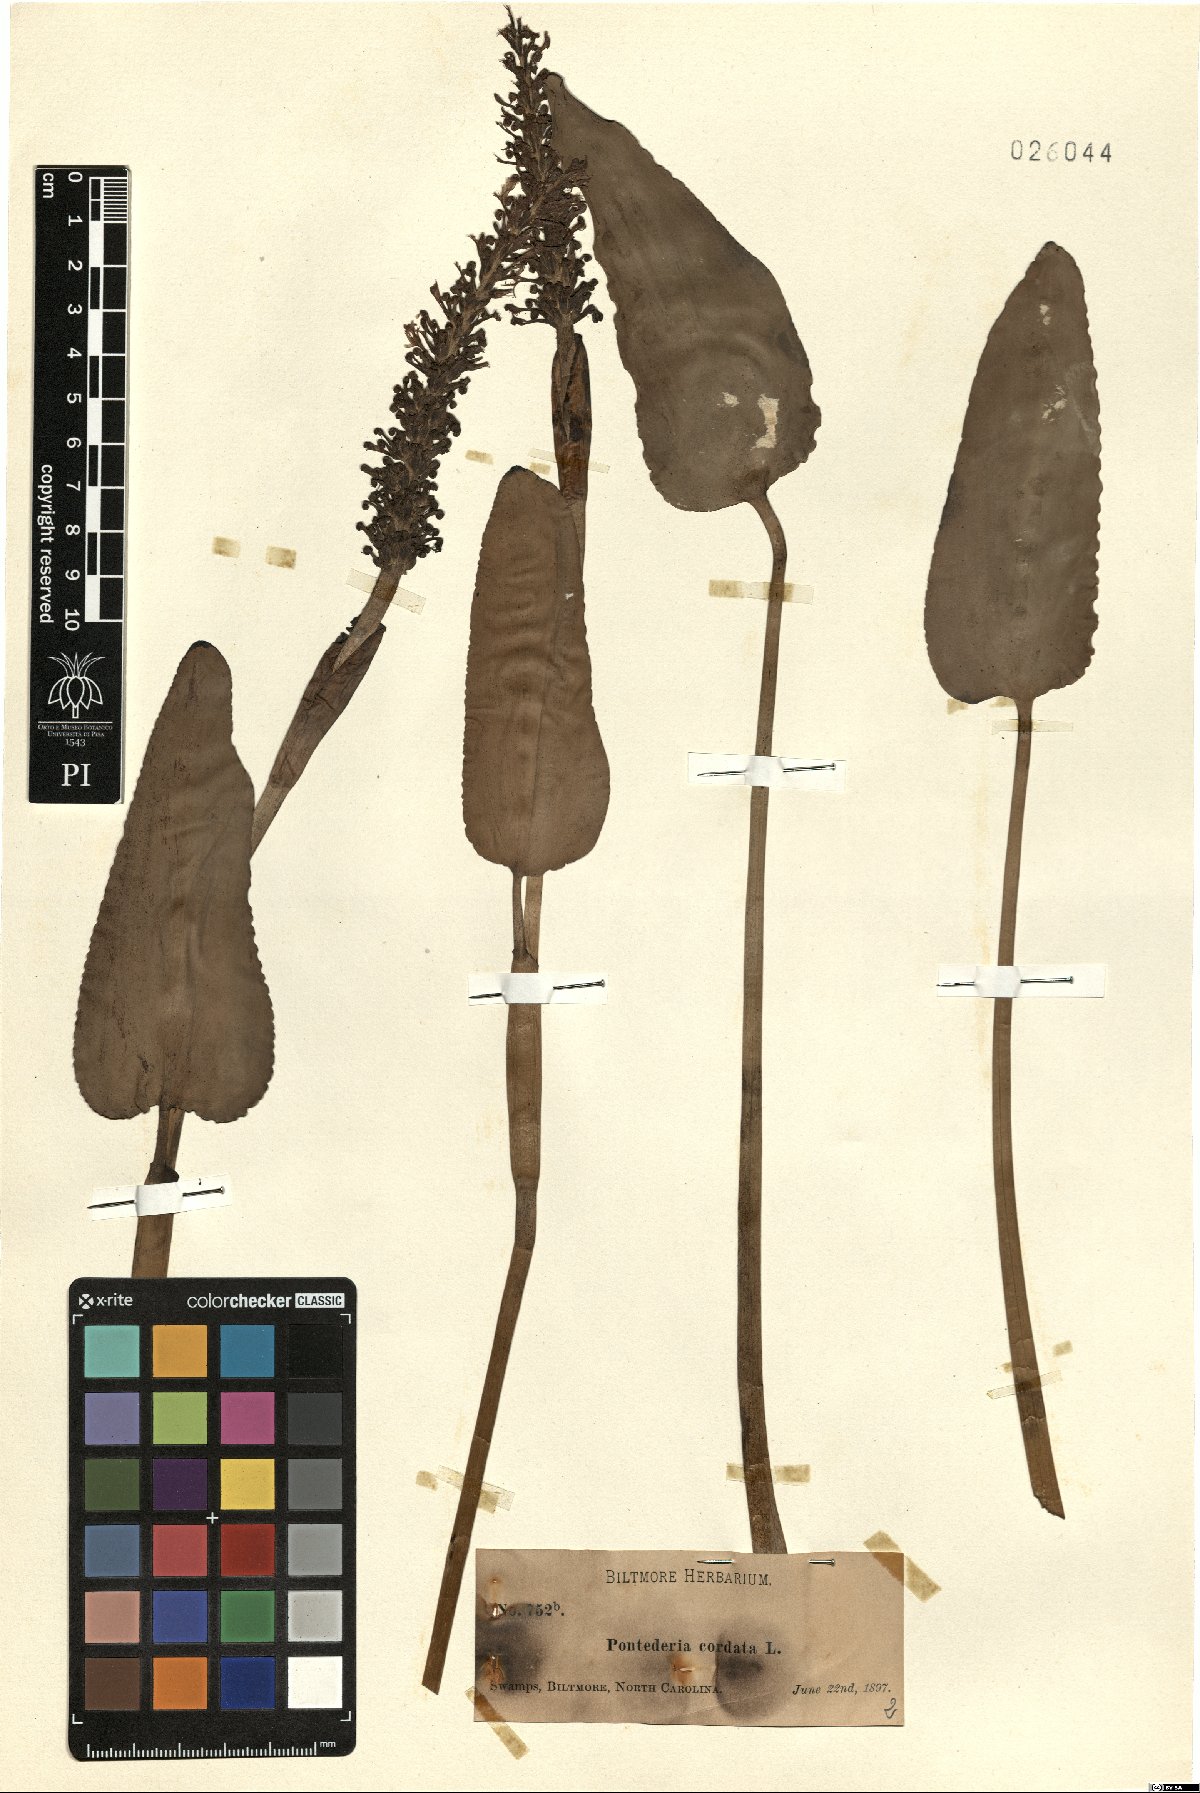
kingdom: Plantae
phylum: Tracheophyta
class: Liliopsida
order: Commelinales
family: Pontederiaceae
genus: Pontederia
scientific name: Pontederia cordata
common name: Pickerelweed
